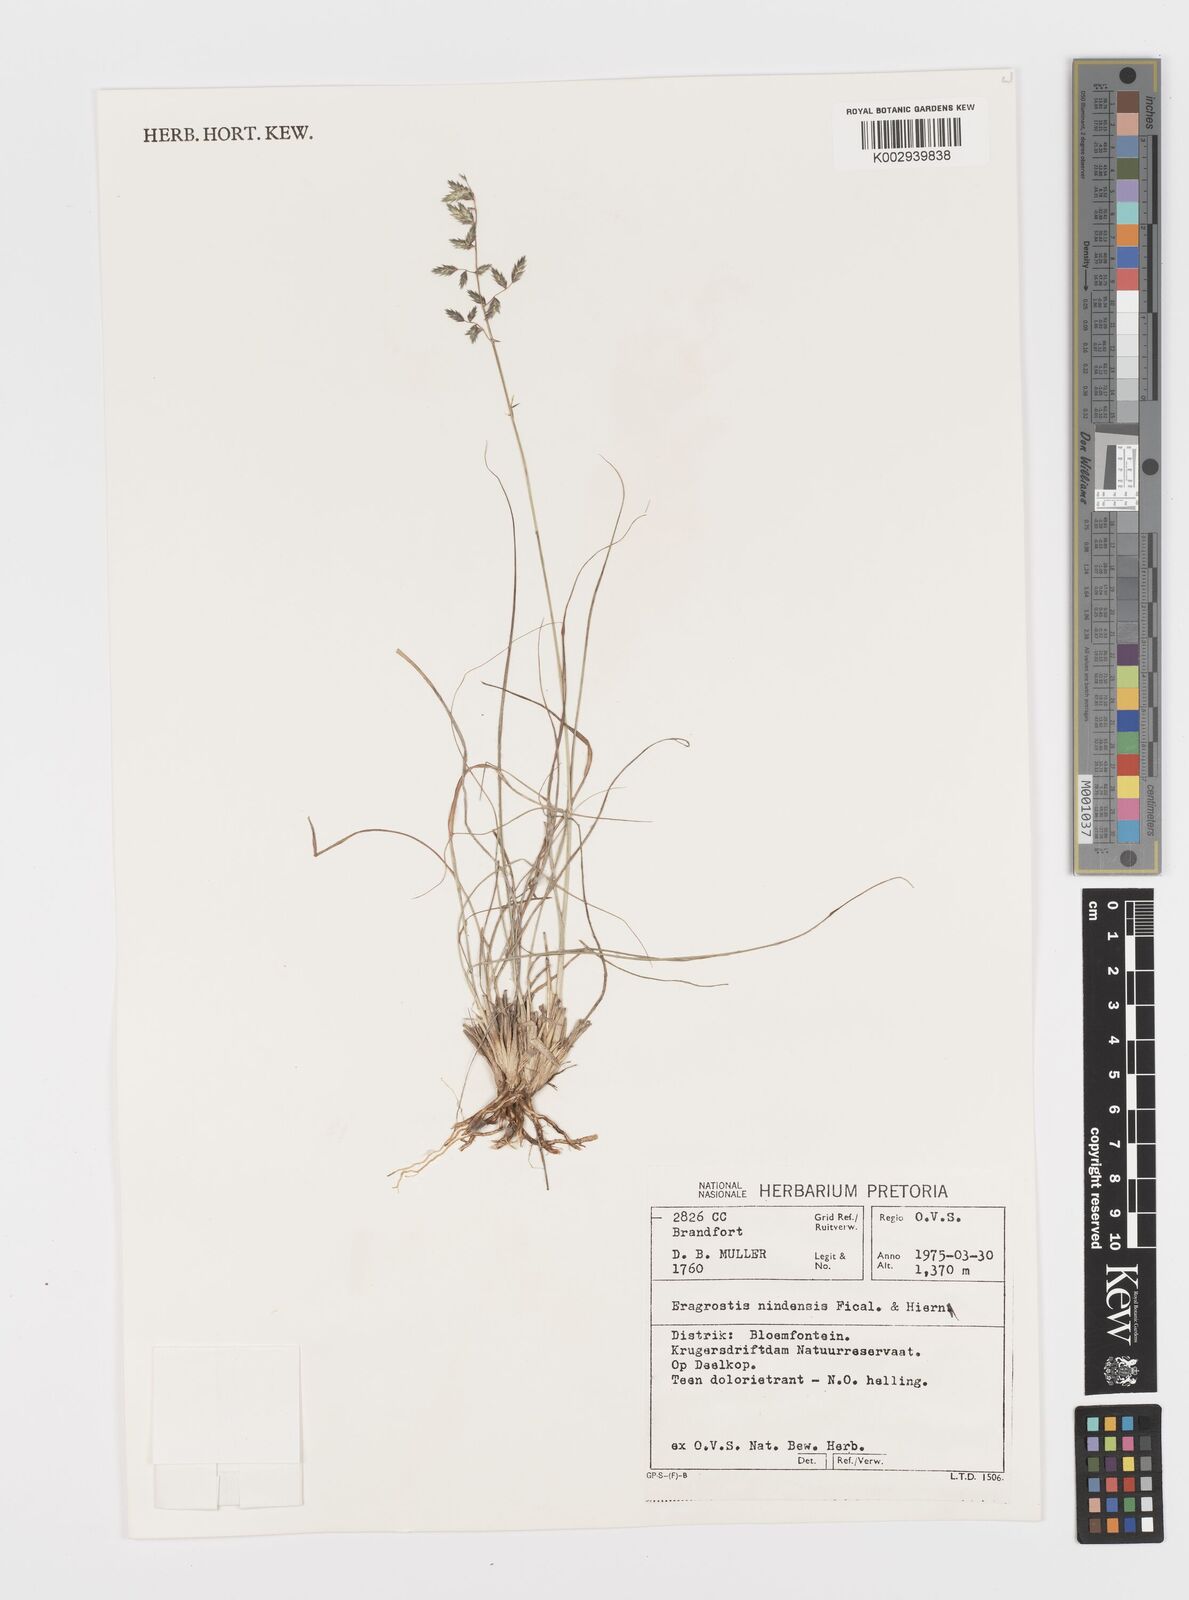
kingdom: Plantae
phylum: Tracheophyta
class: Liliopsida
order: Poales
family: Poaceae
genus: Eragrostis
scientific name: Eragrostis nindensis
